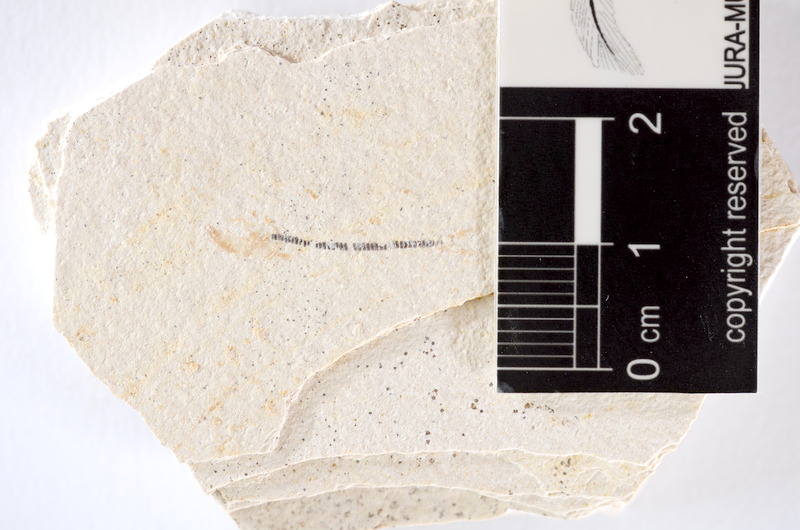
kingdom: Animalia
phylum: Chordata
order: Salmoniformes
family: Orthogonikleithridae
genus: Orthogonikleithrus
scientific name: Orthogonikleithrus hoelli
